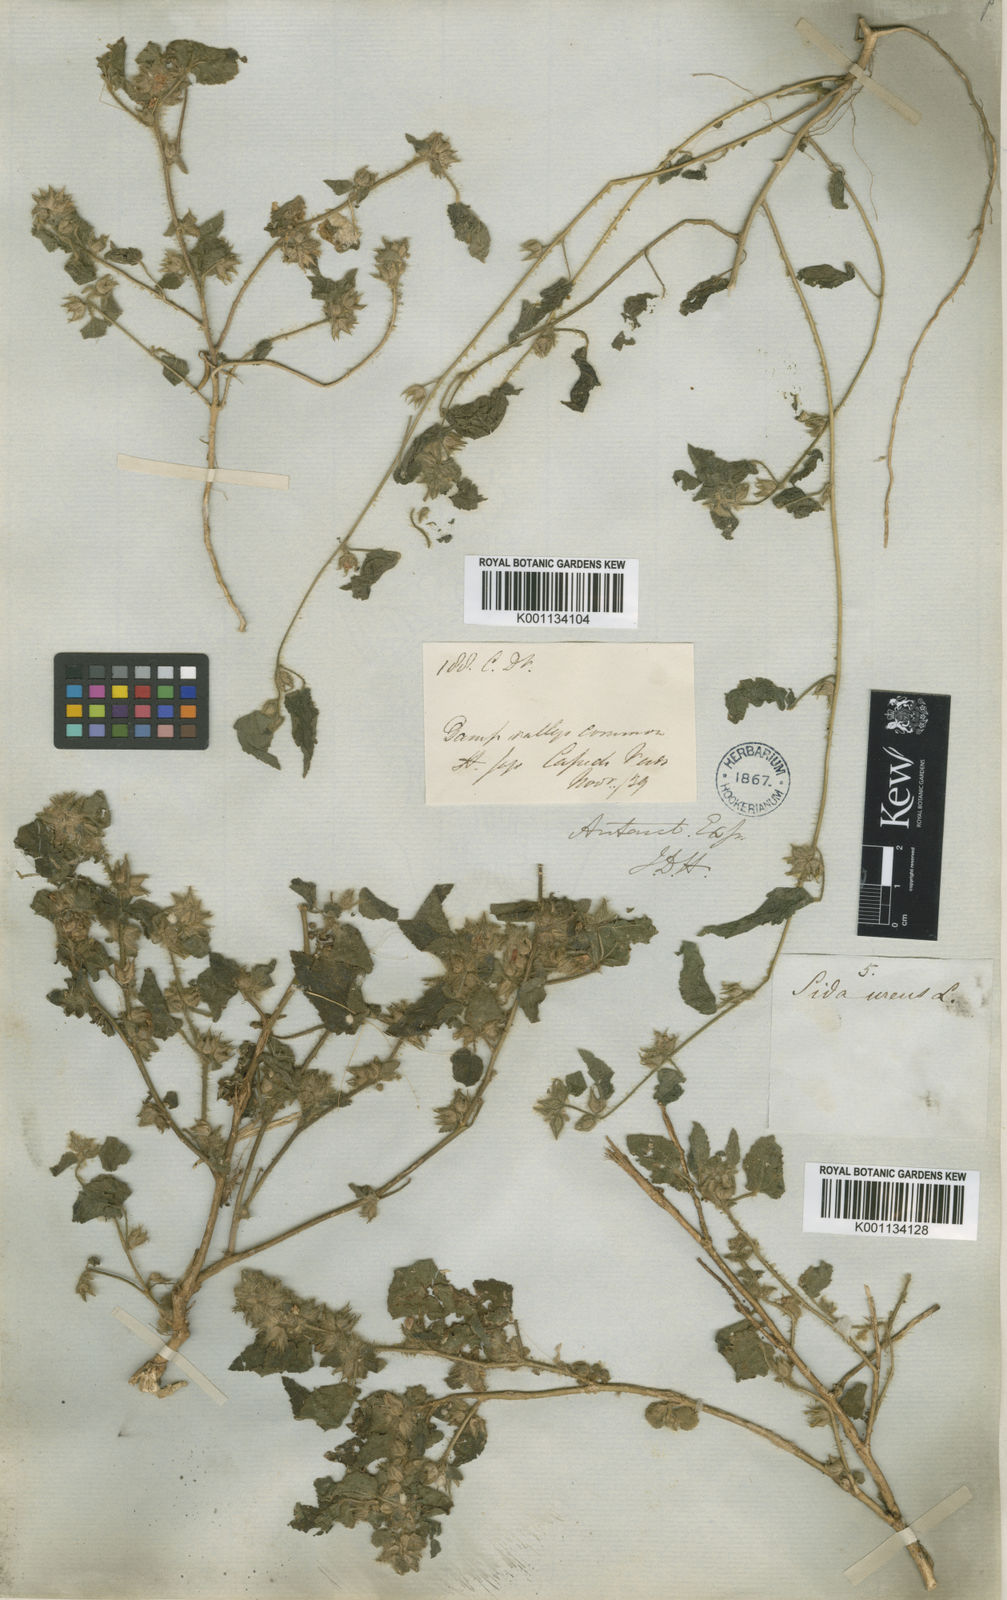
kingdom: Plantae
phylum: Tracheophyta
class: Magnoliopsida
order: Malvales
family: Malvaceae
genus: Sida
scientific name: Sida urens
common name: Tropical fanpetals
